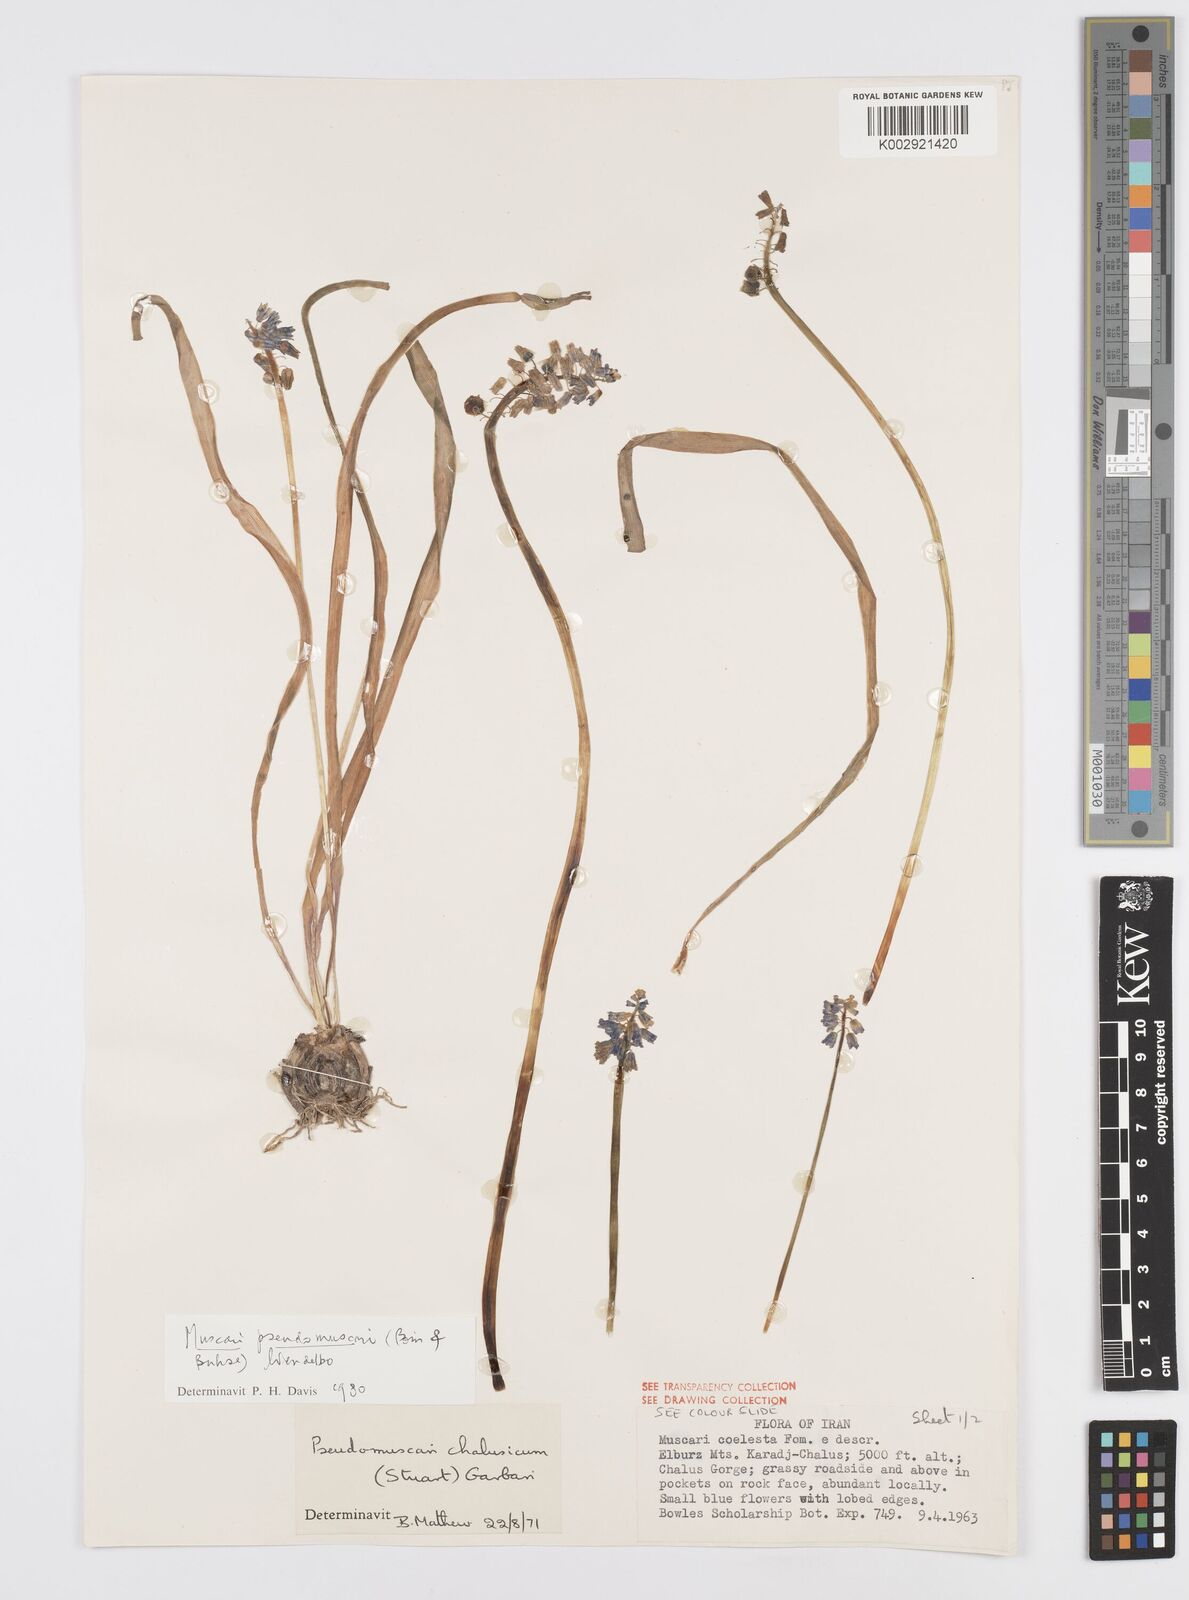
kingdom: Plantae
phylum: Tracheophyta
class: Liliopsida
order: Asparagales
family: Asparagaceae
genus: Muscari
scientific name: Muscari chalusicum
